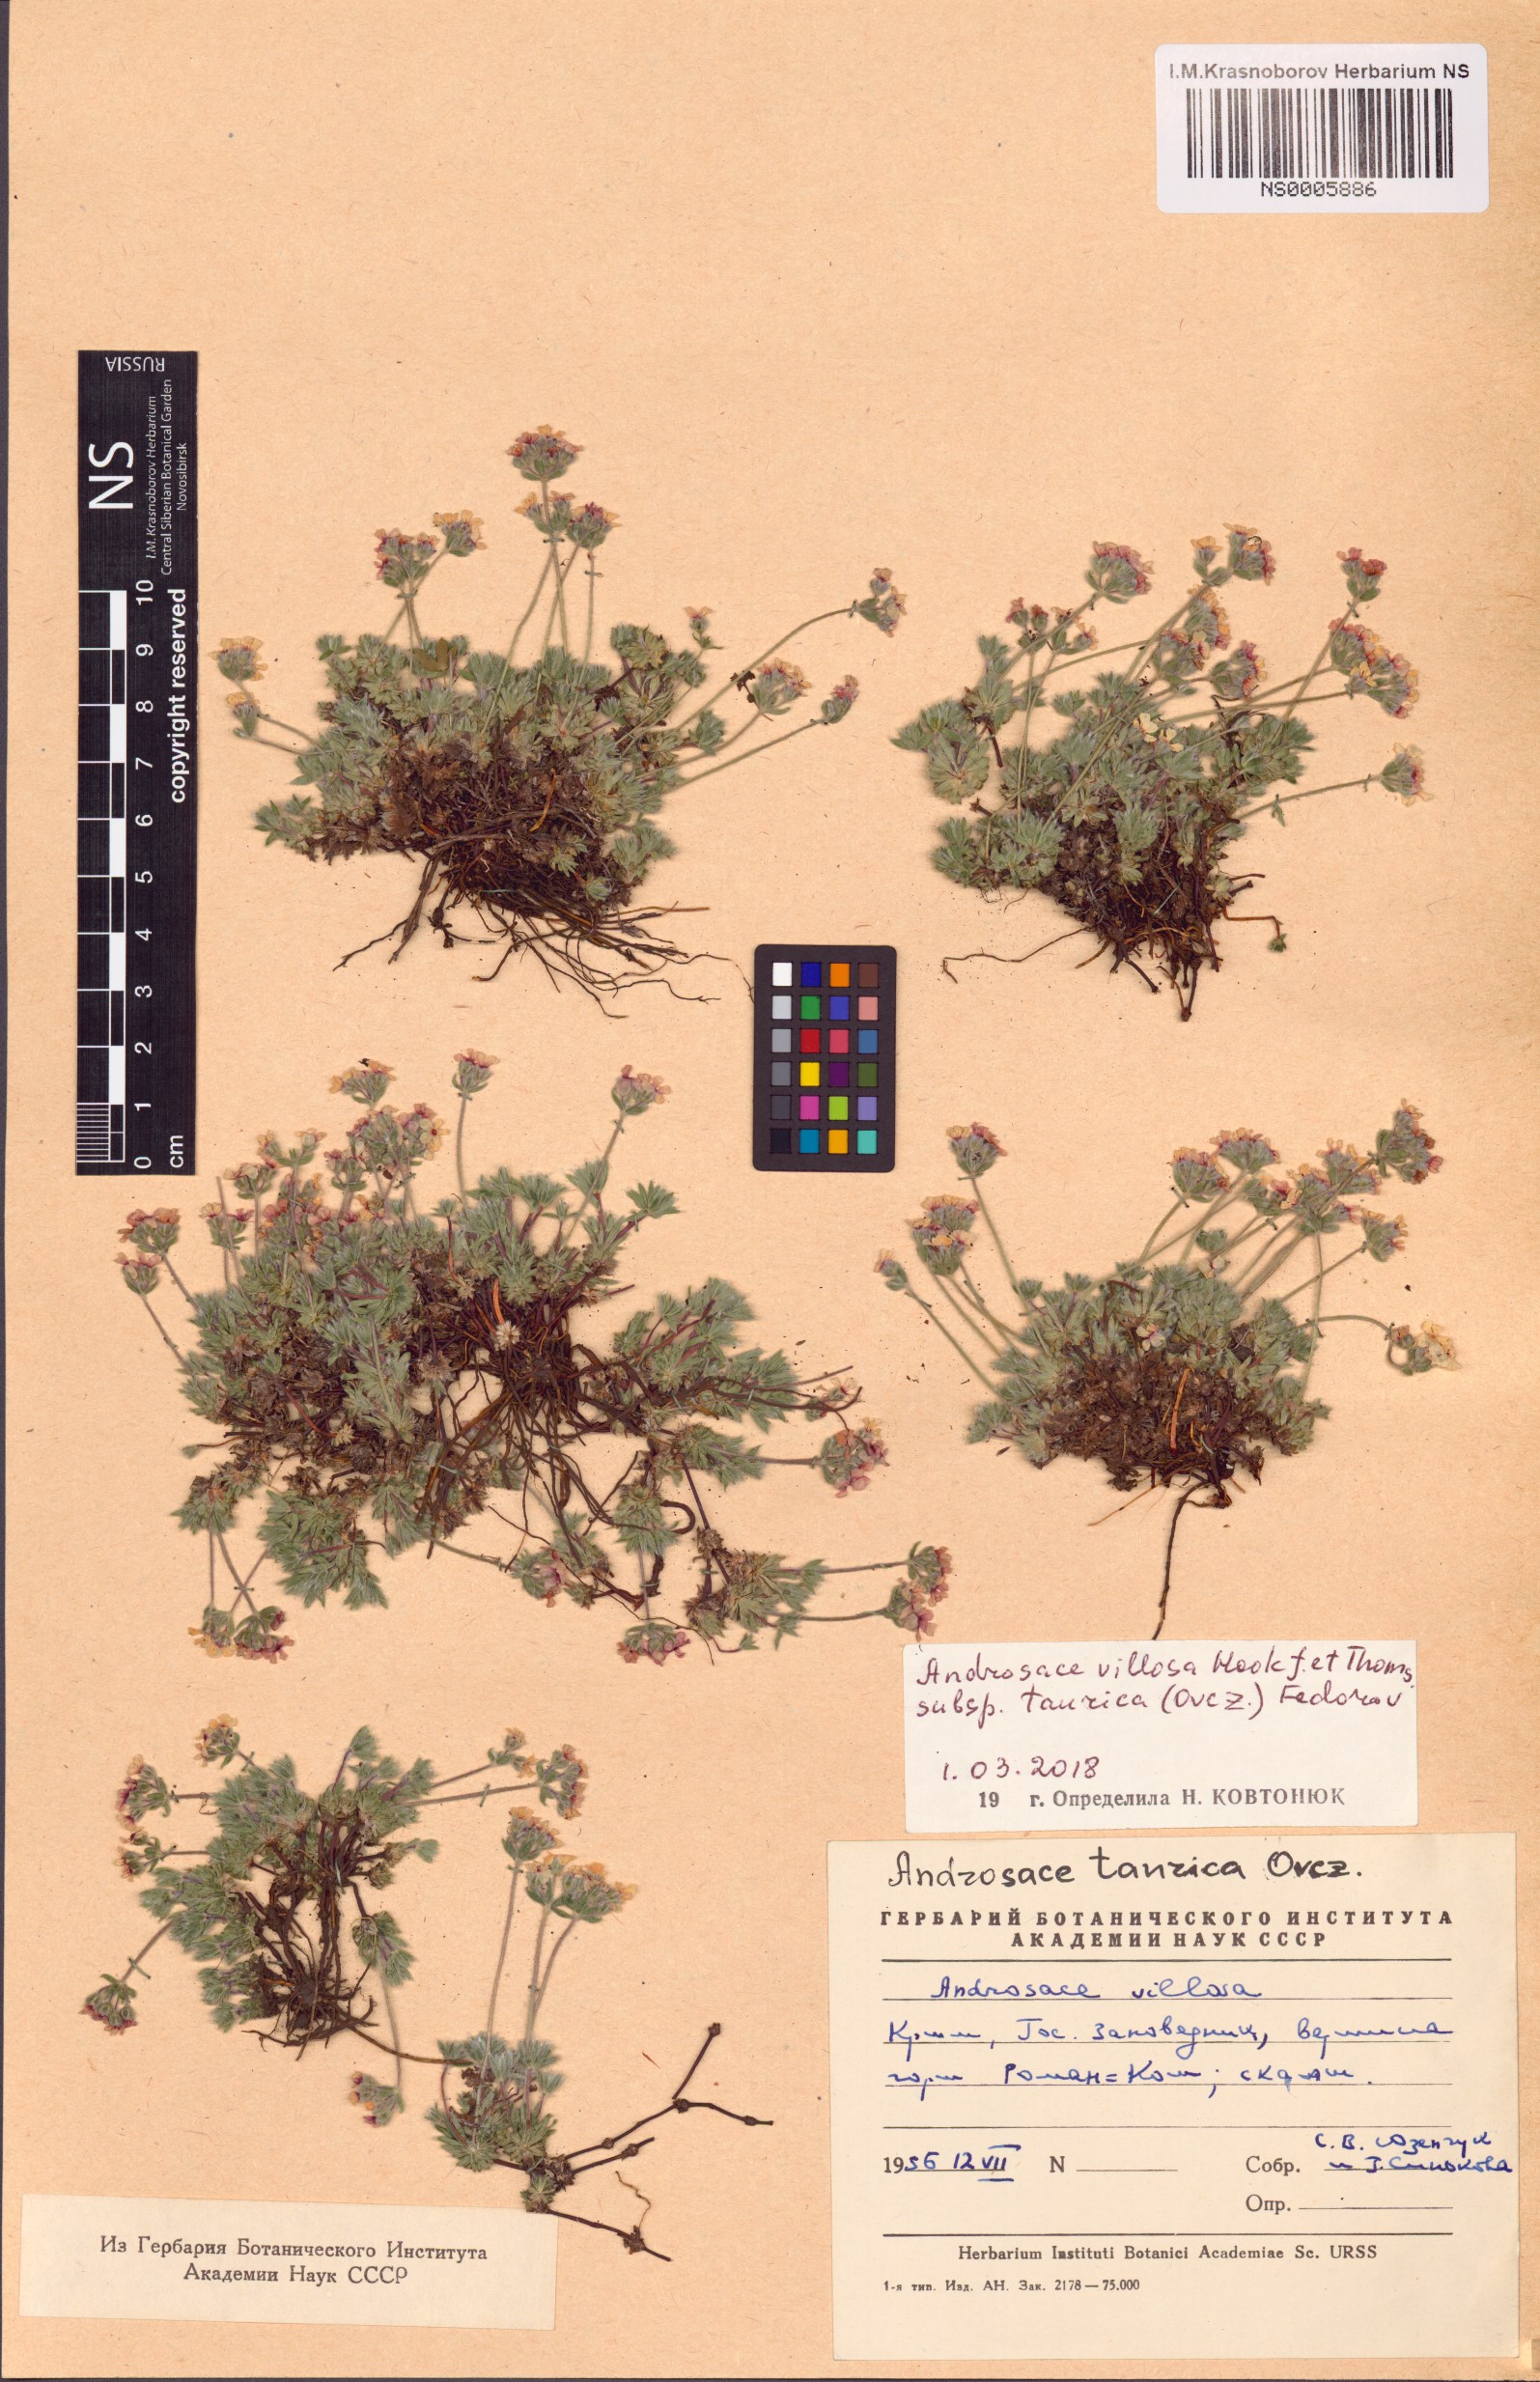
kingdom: Plantae
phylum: Tracheophyta
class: Magnoliopsida
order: Ericales
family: Primulaceae
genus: Androsace
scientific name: Androsace villosa
